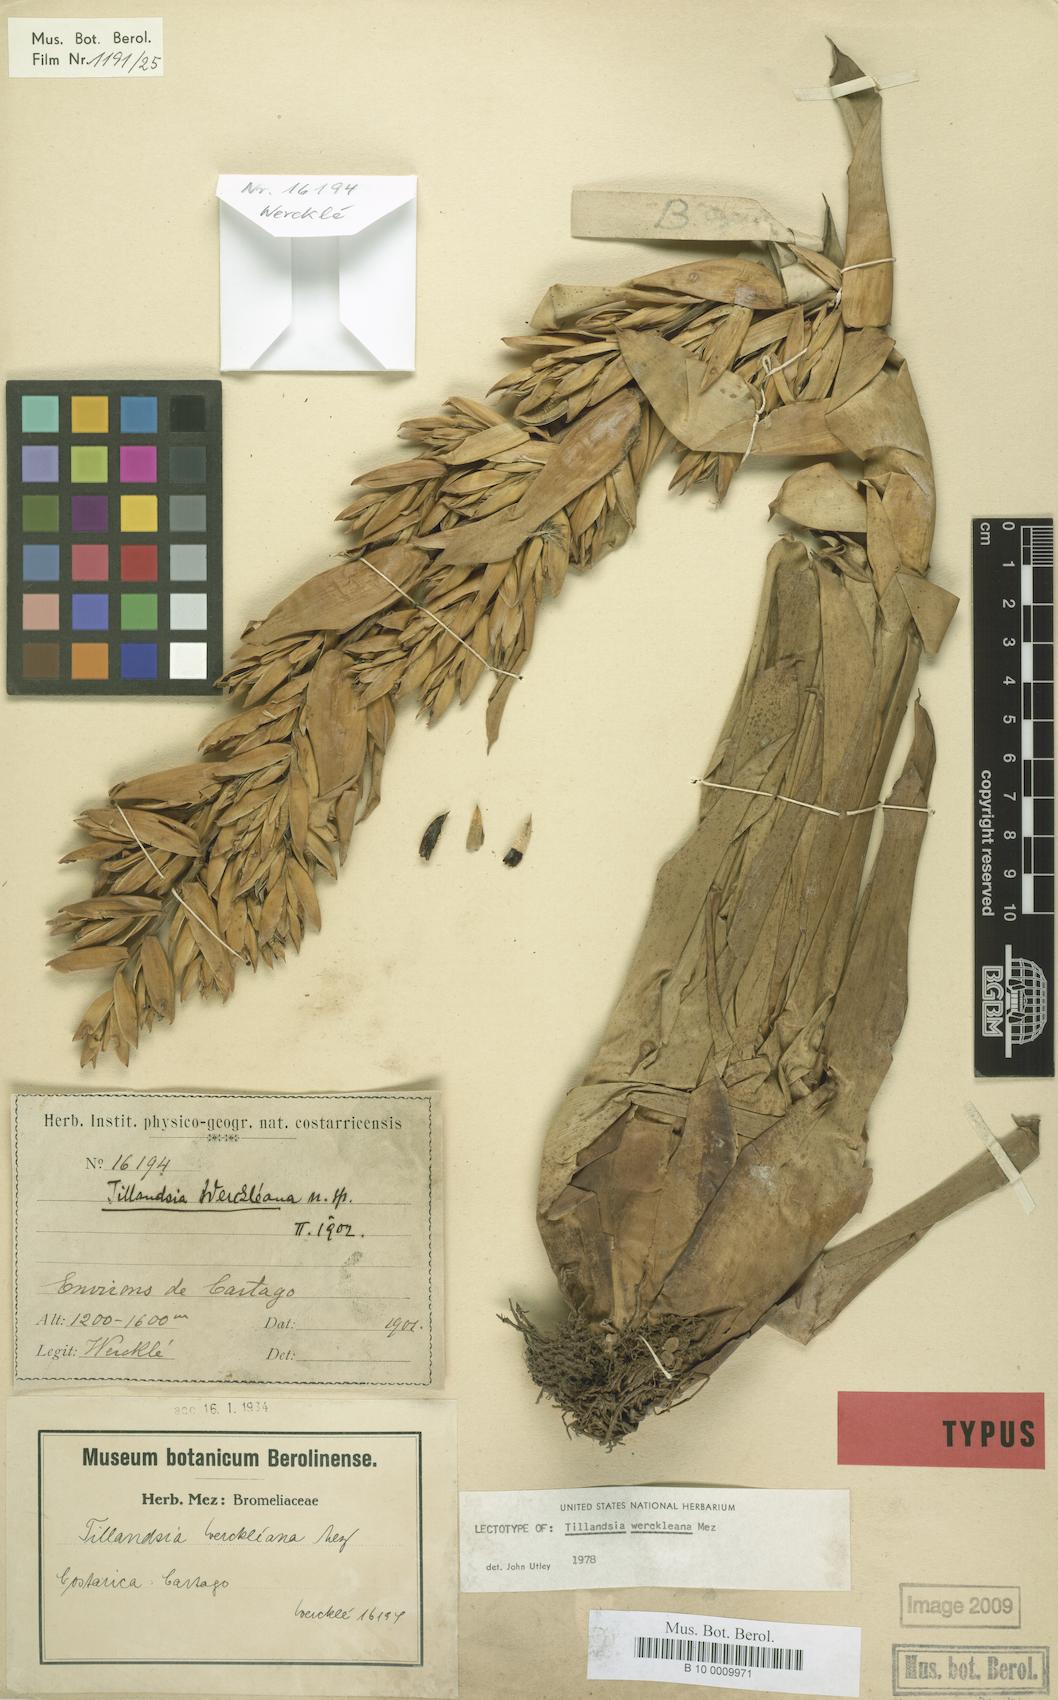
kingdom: Plantae
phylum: Tracheophyta
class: Liliopsida
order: Poales
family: Bromeliaceae
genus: Tillandsia
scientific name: Tillandsia excelsa
